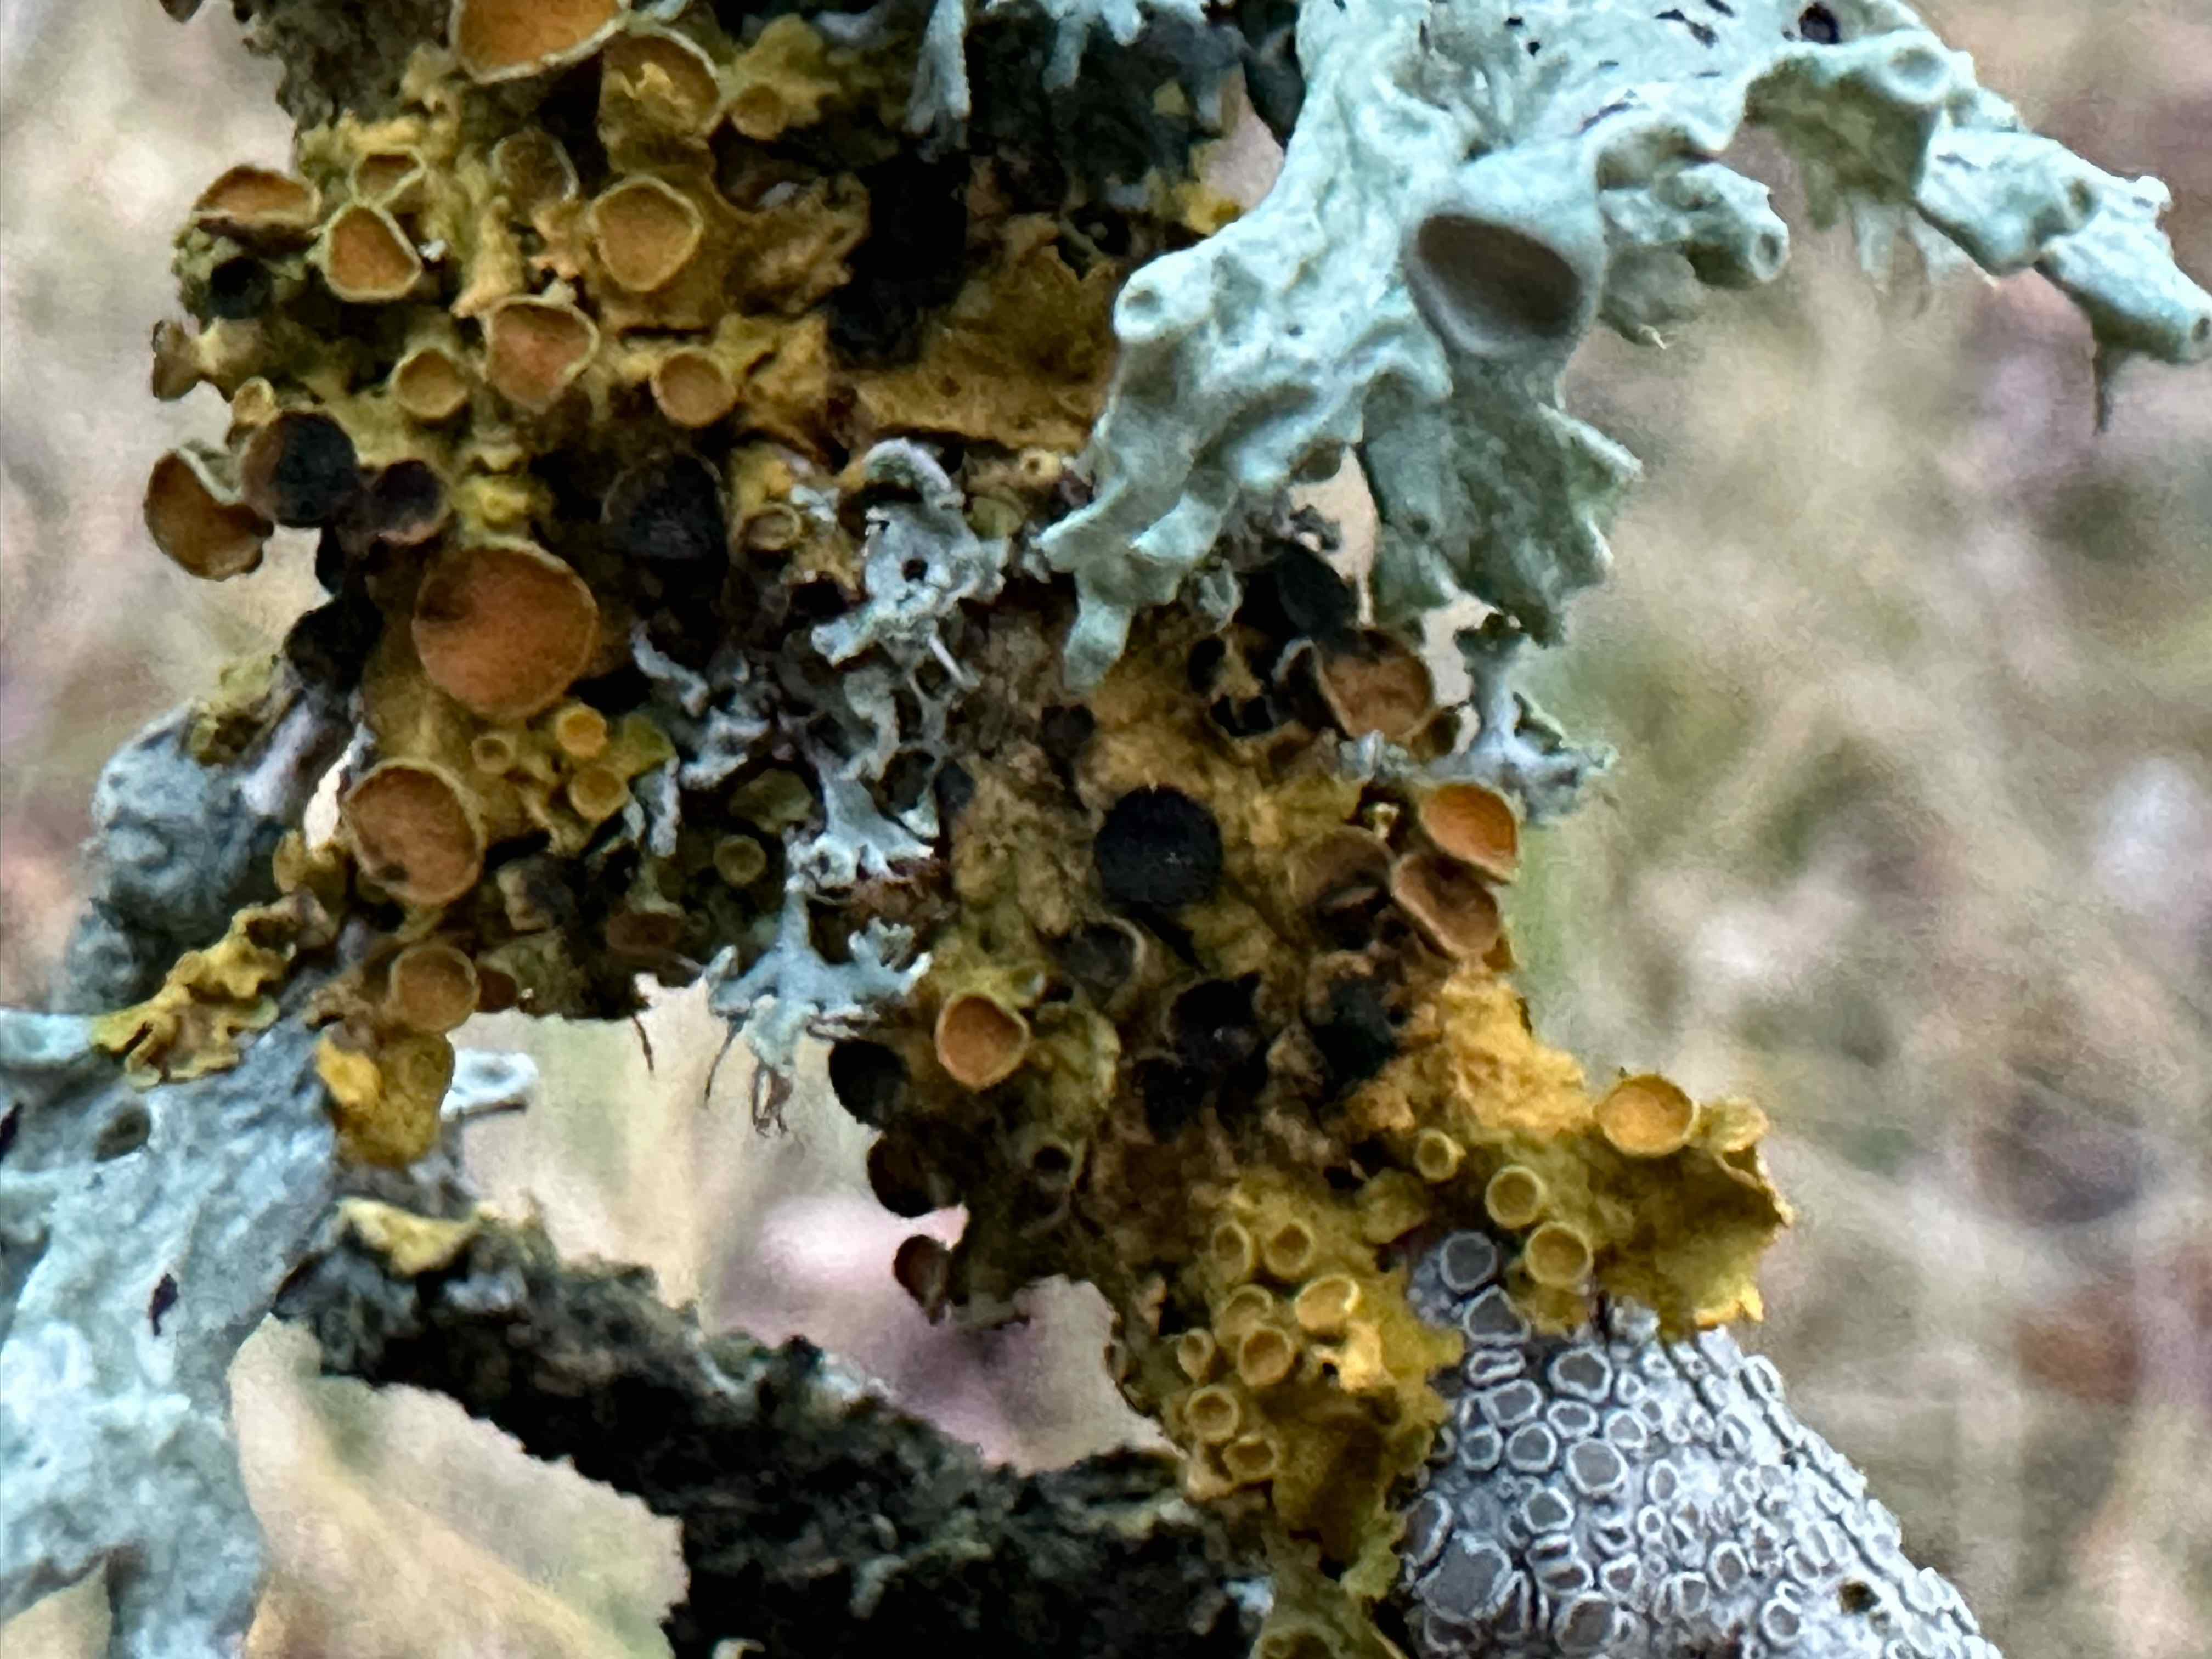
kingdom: Fungi
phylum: Ascomycota
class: Dothideomycetes
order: Mycosphaerellales
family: Teratosphaeriaceae
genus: Xanthoriicola
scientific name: Xanthoriicola physciae
